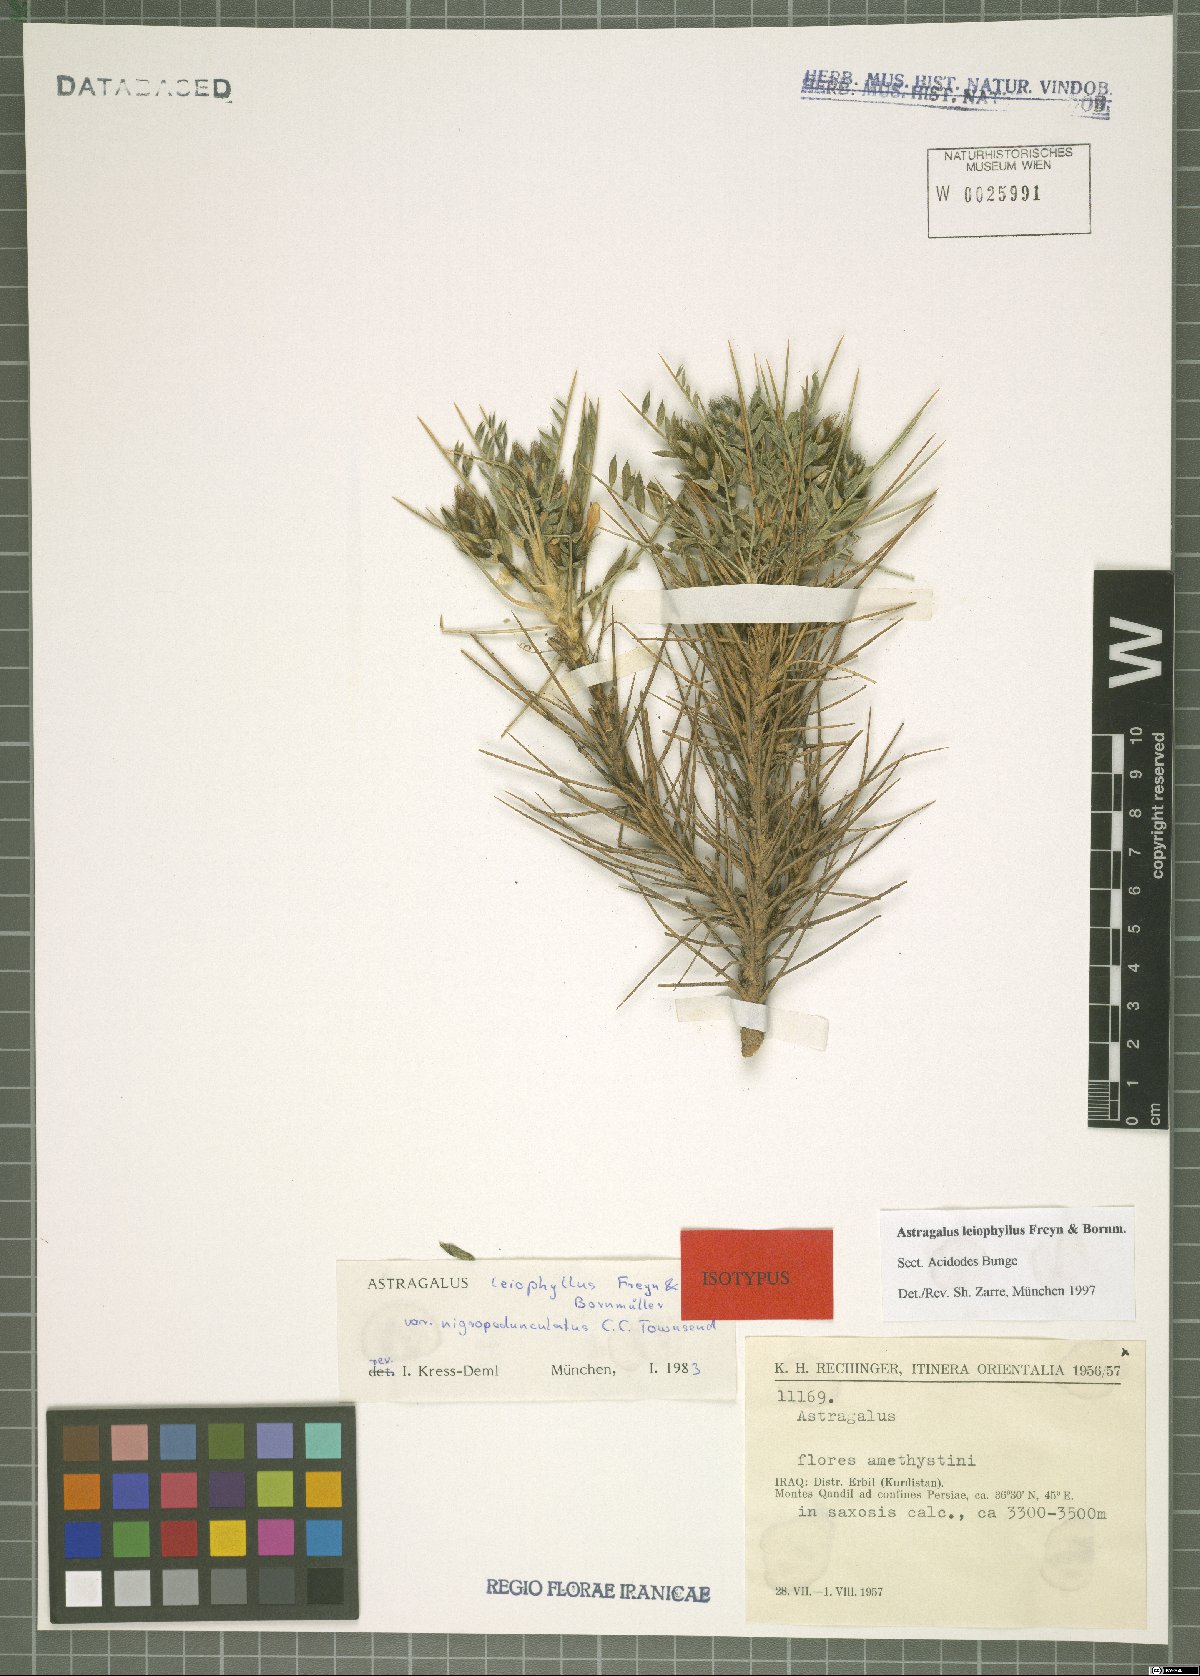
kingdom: Plantae
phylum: Tracheophyta
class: Magnoliopsida
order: Fabales
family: Fabaceae
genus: Astragalus
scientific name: Astragalus leiophyllus
